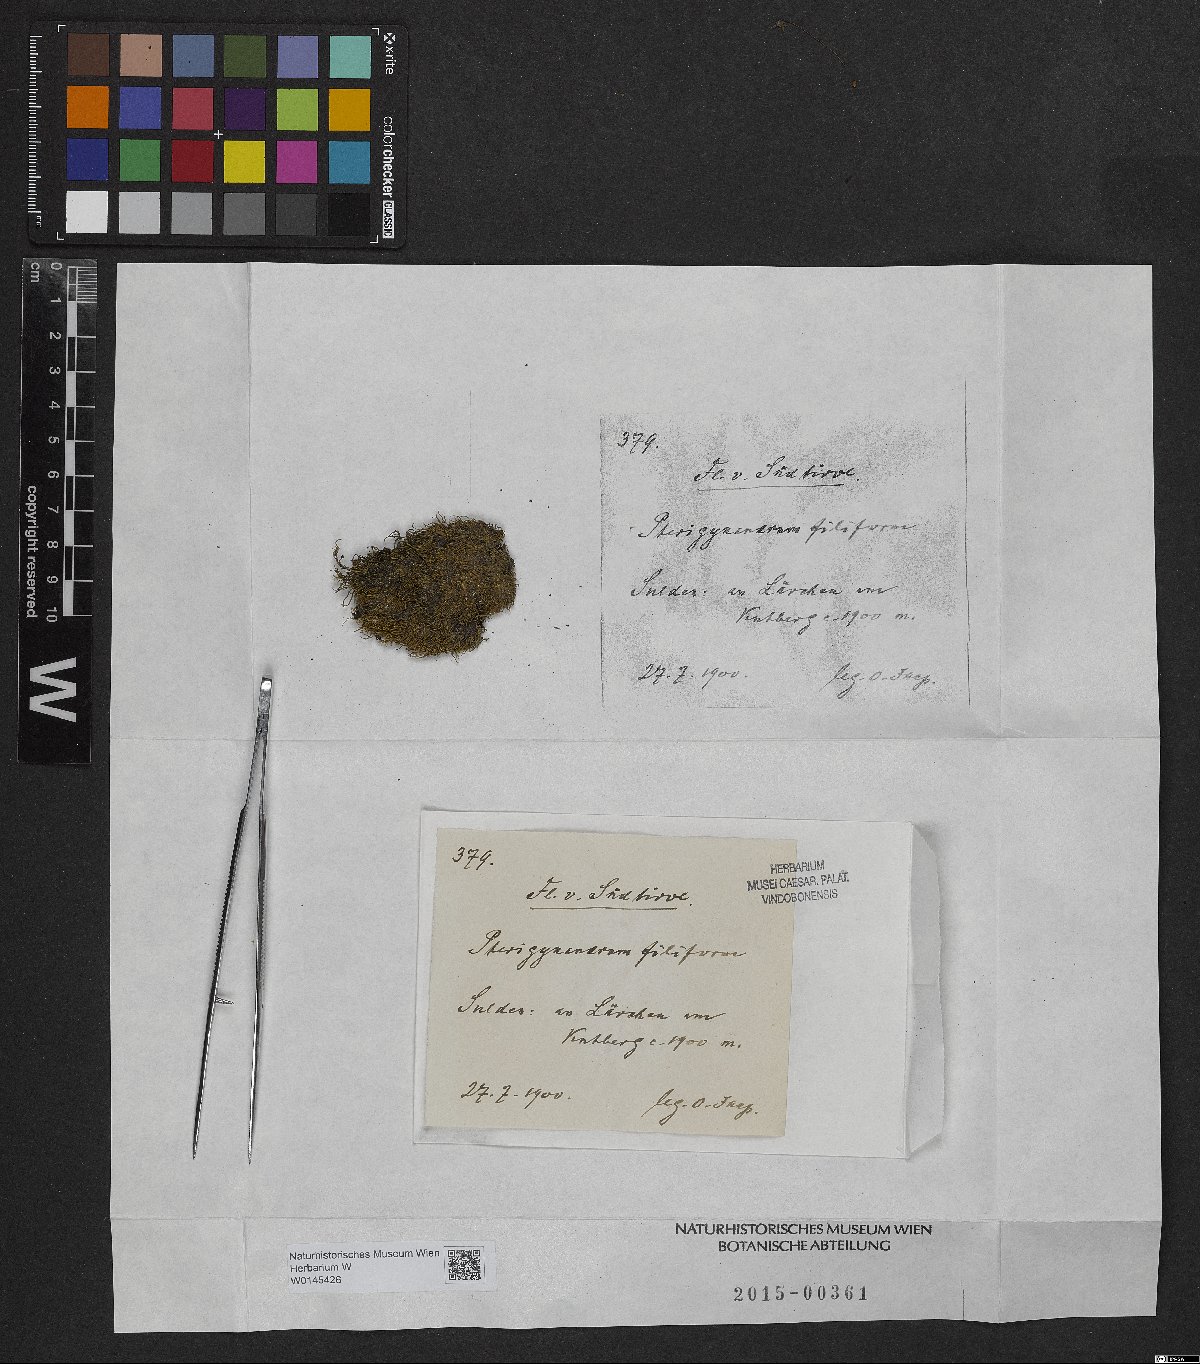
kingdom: Plantae
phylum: Bryophyta
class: Bryopsida
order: Hypnales
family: Pterigynandraceae
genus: Pterigynandrum
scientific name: Pterigynandrum filiforme
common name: Capillary wing moss
